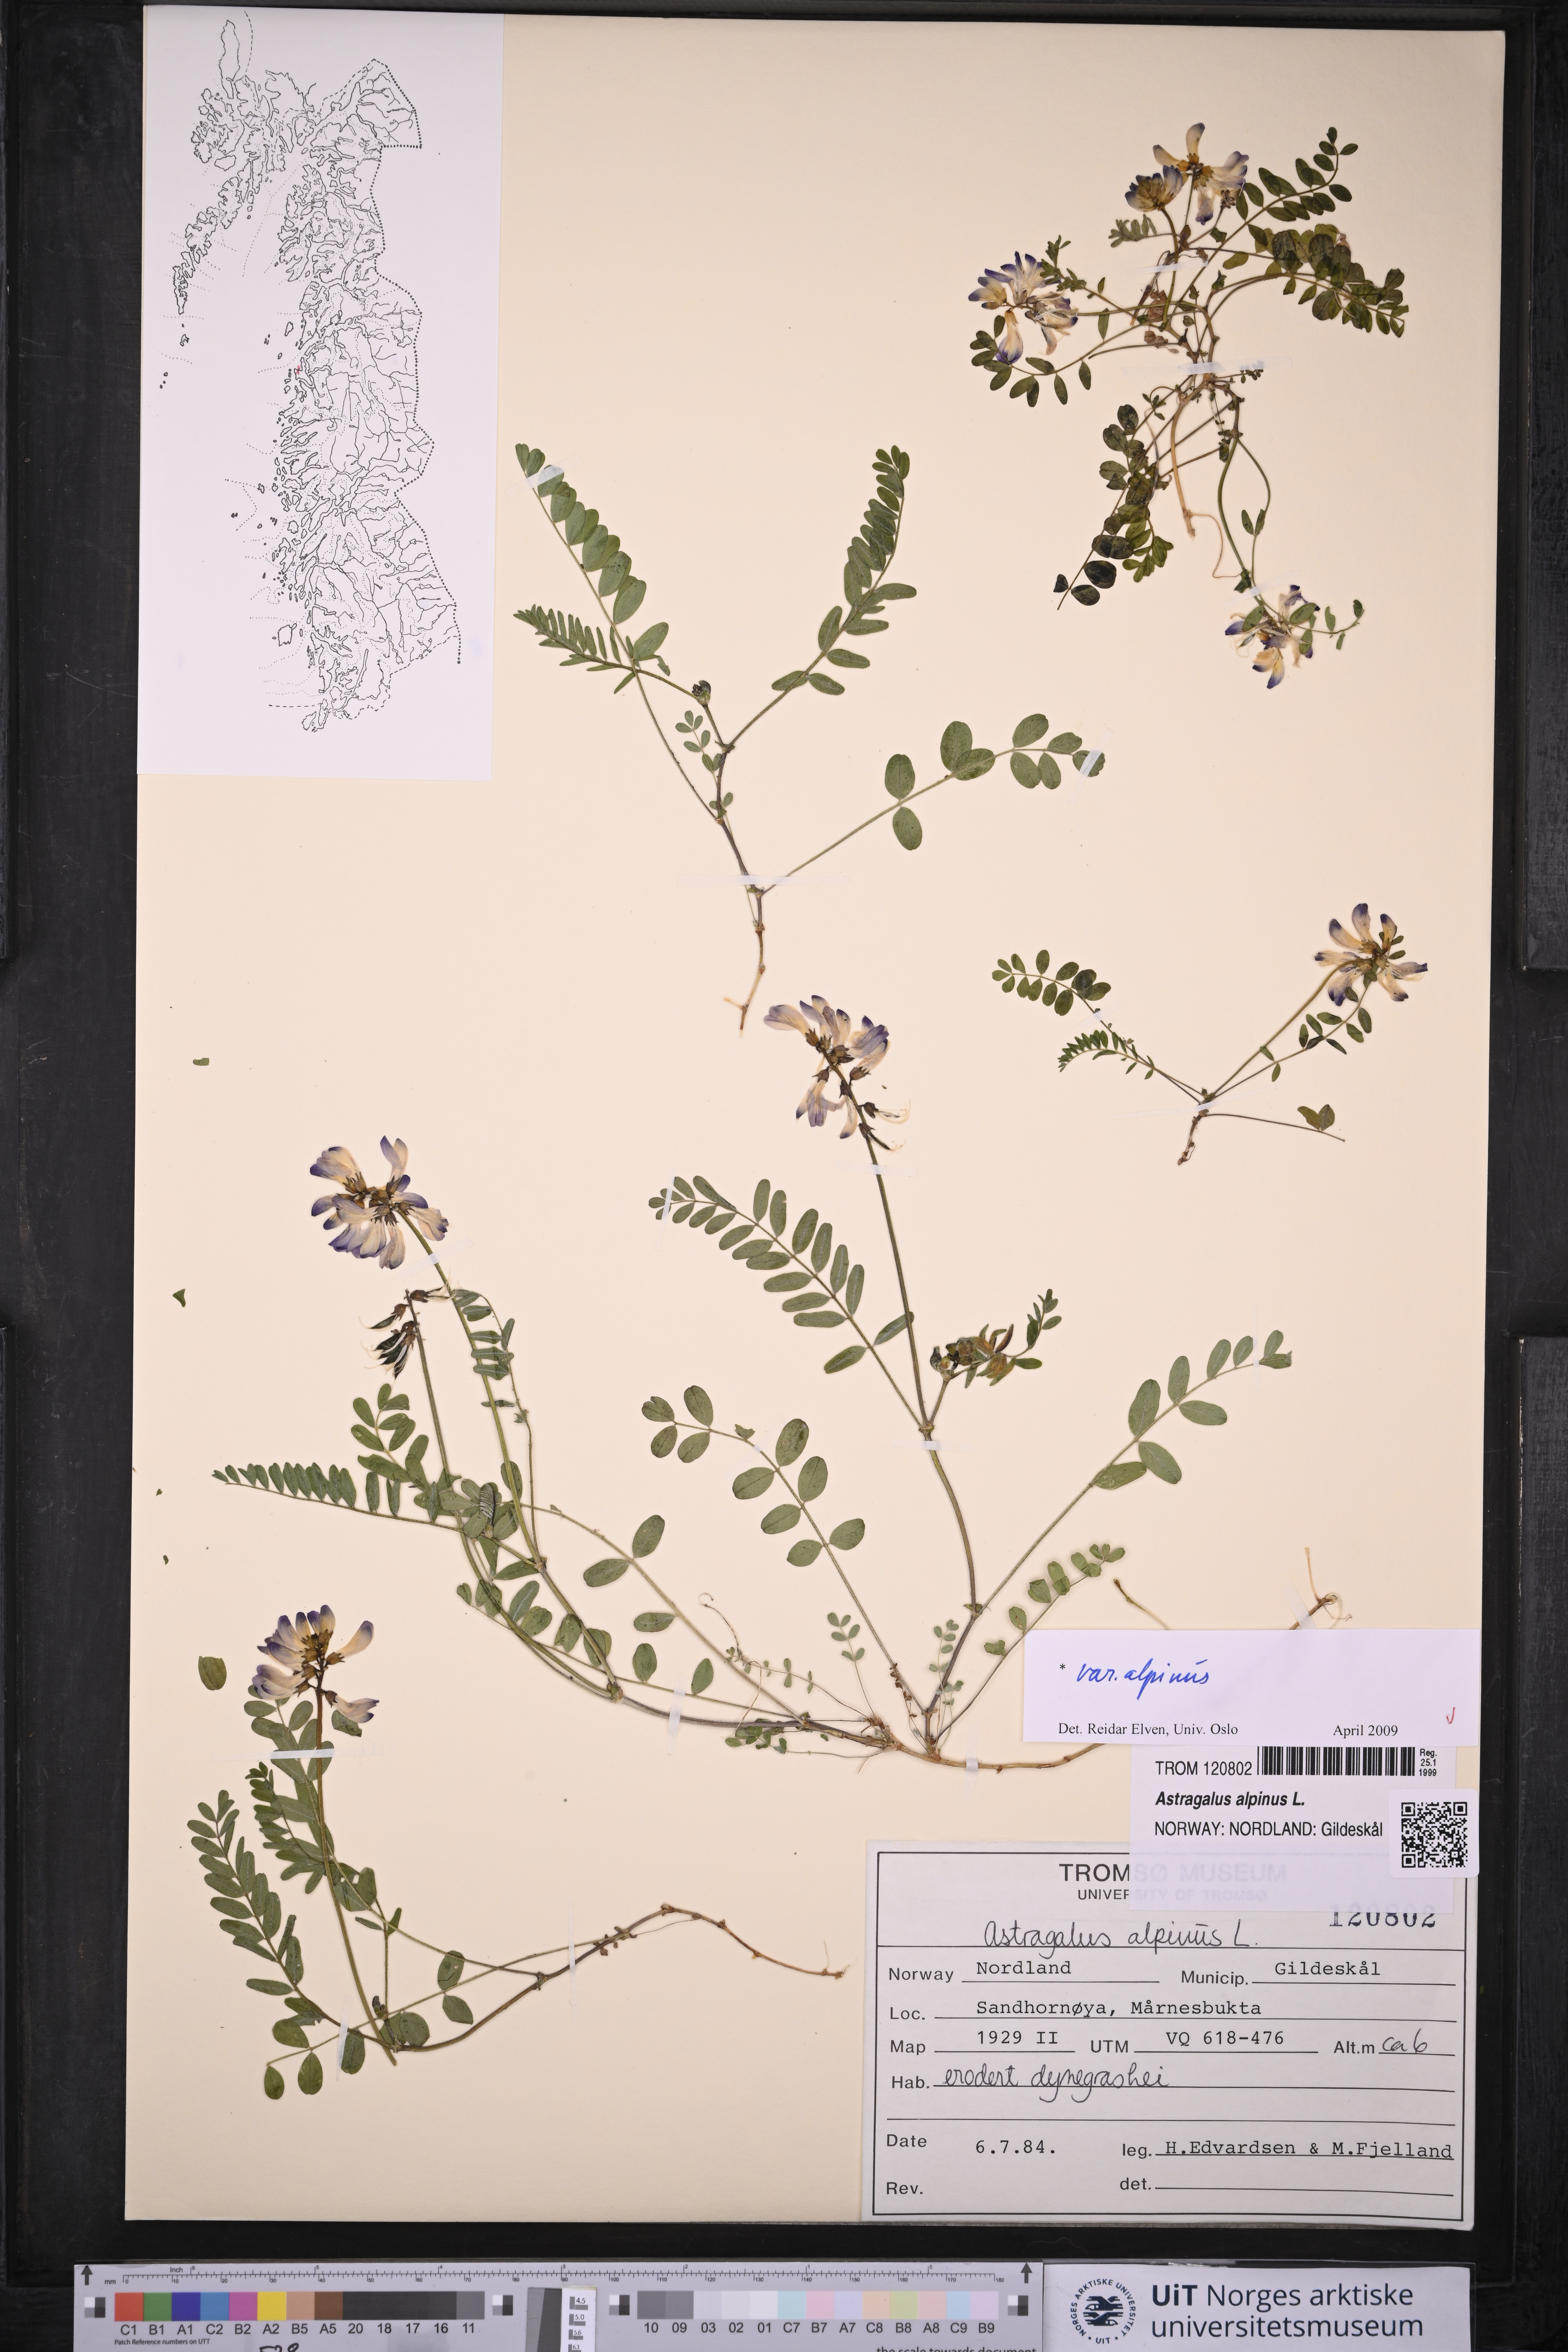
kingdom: Plantae
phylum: Tracheophyta
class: Magnoliopsida
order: Fabales
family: Fabaceae
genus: Astragalus
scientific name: Astragalus alpinus
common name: Alpine milk-vetch
